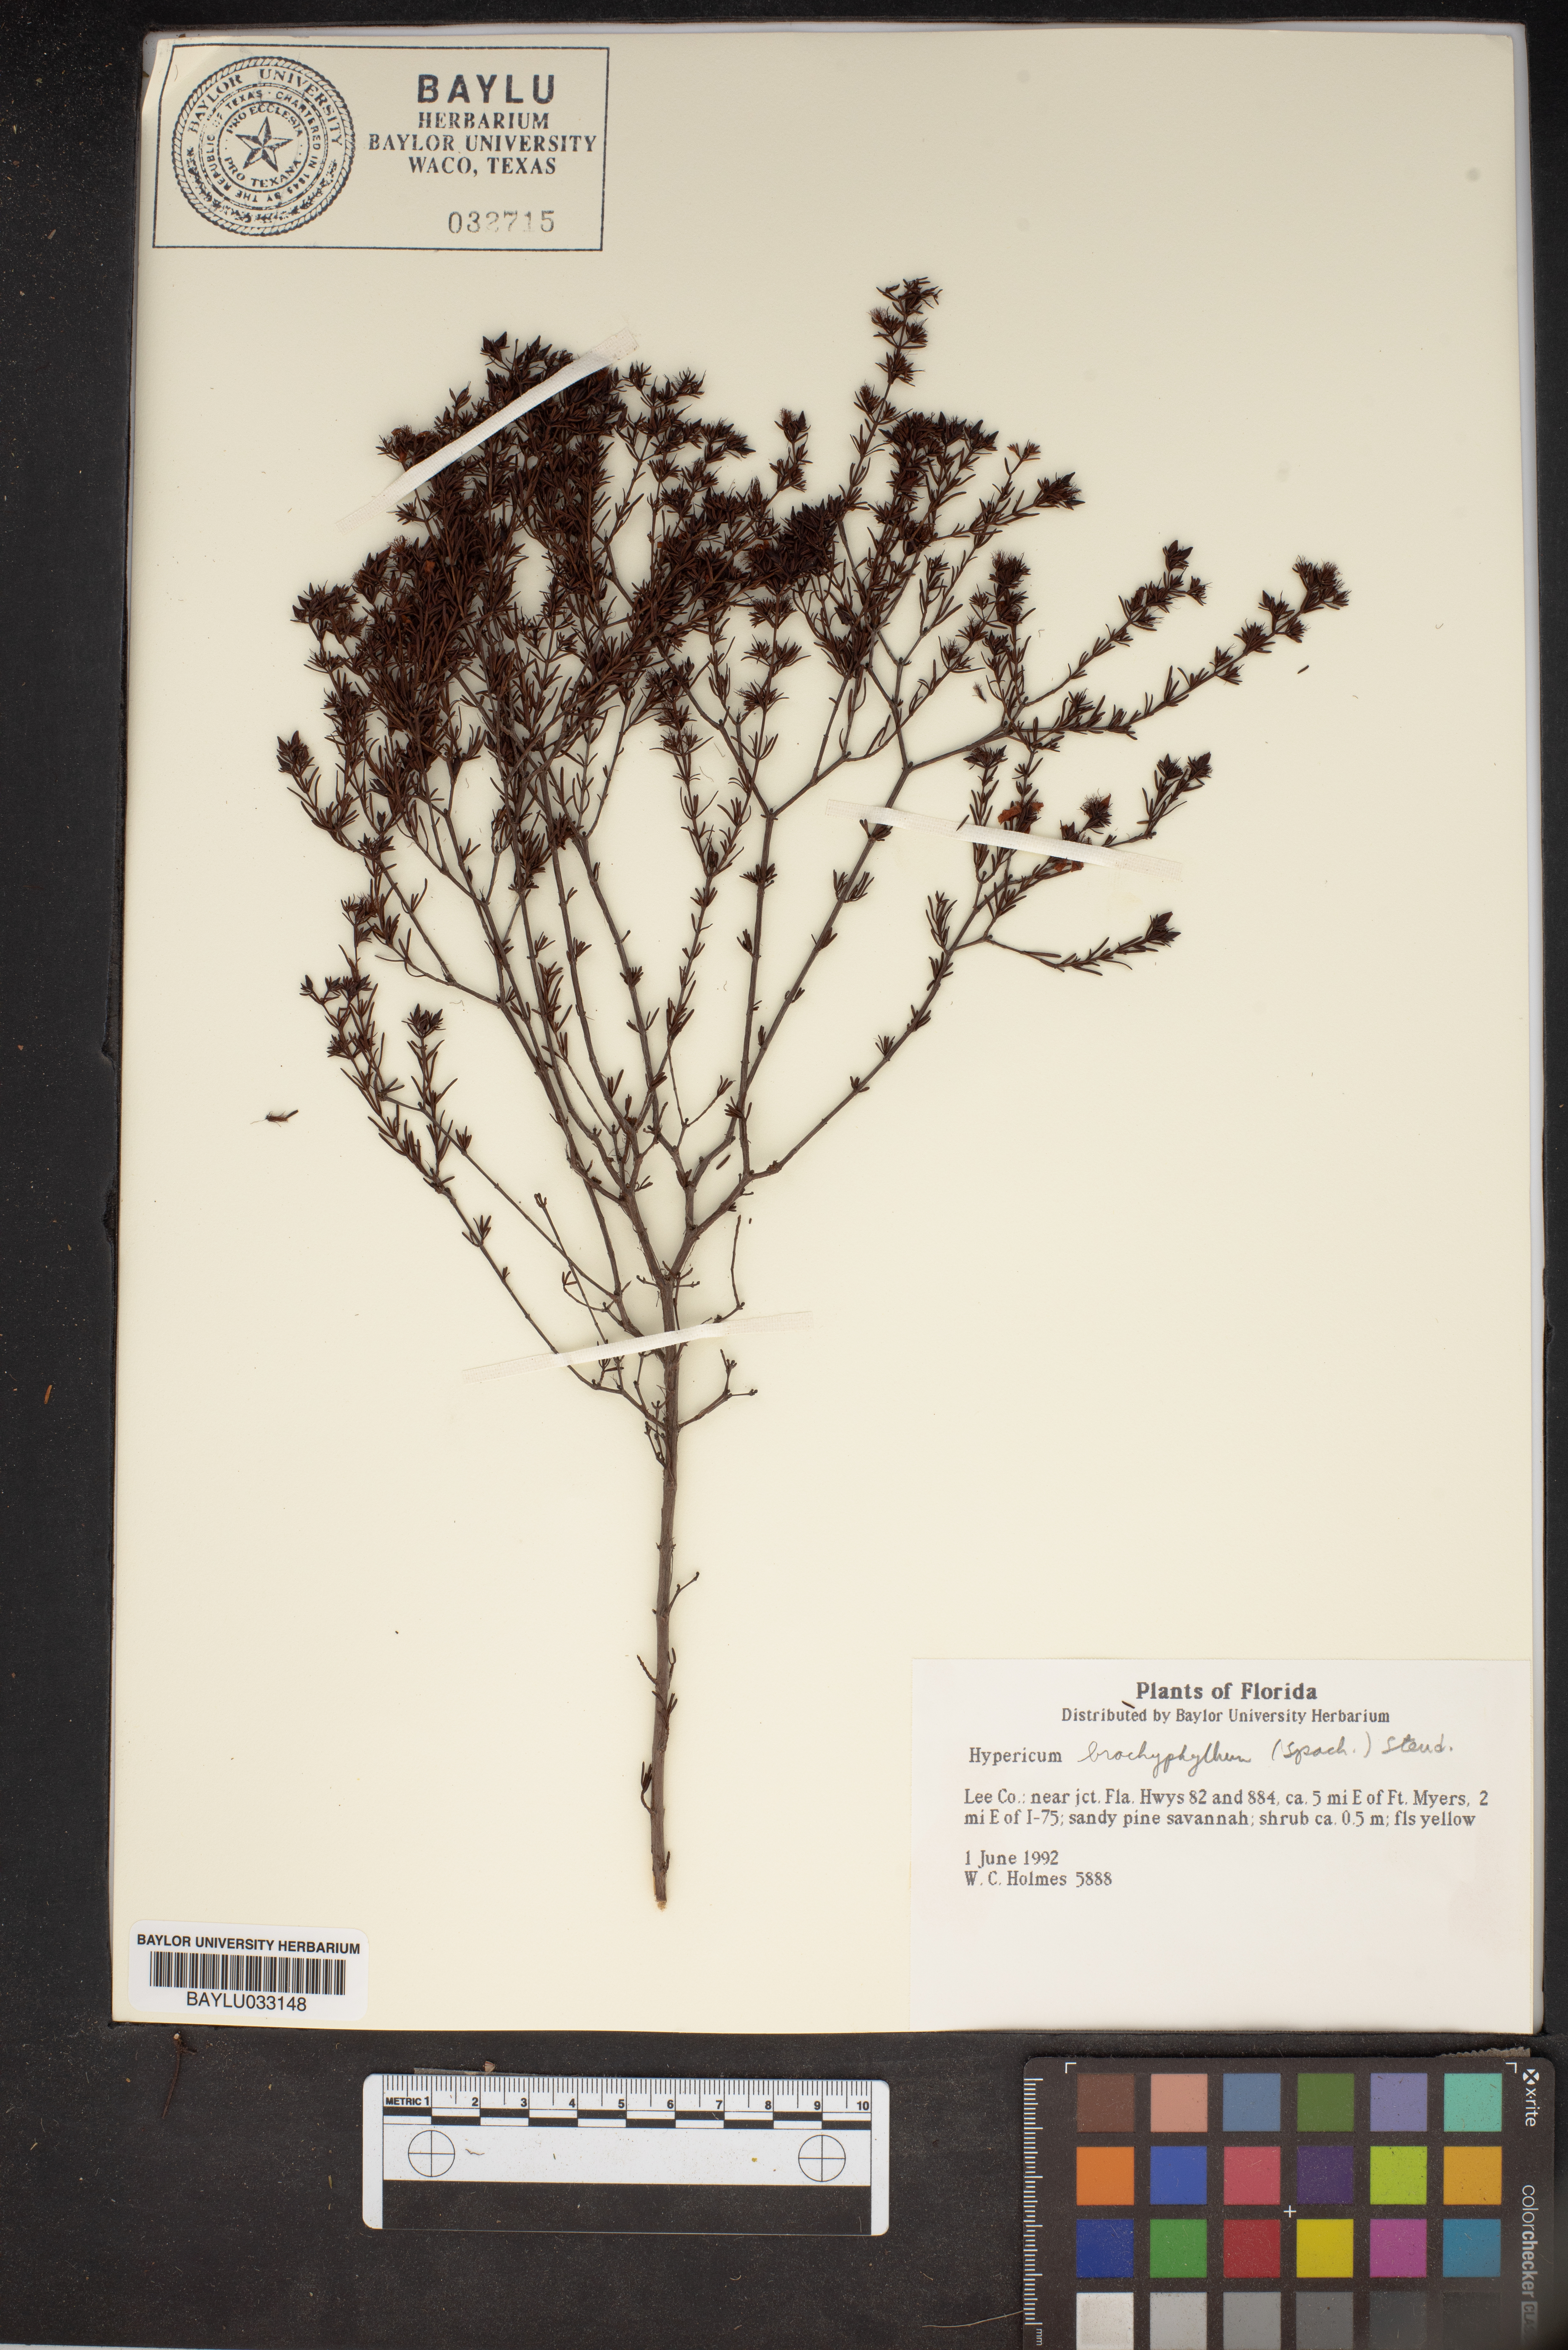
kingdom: Plantae
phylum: Tracheophyta
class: Magnoliopsida
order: Malpighiales
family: Hypericaceae
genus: Hypericum
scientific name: Hypericum brachyphyllum
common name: Coastal plain st. john's-wort
